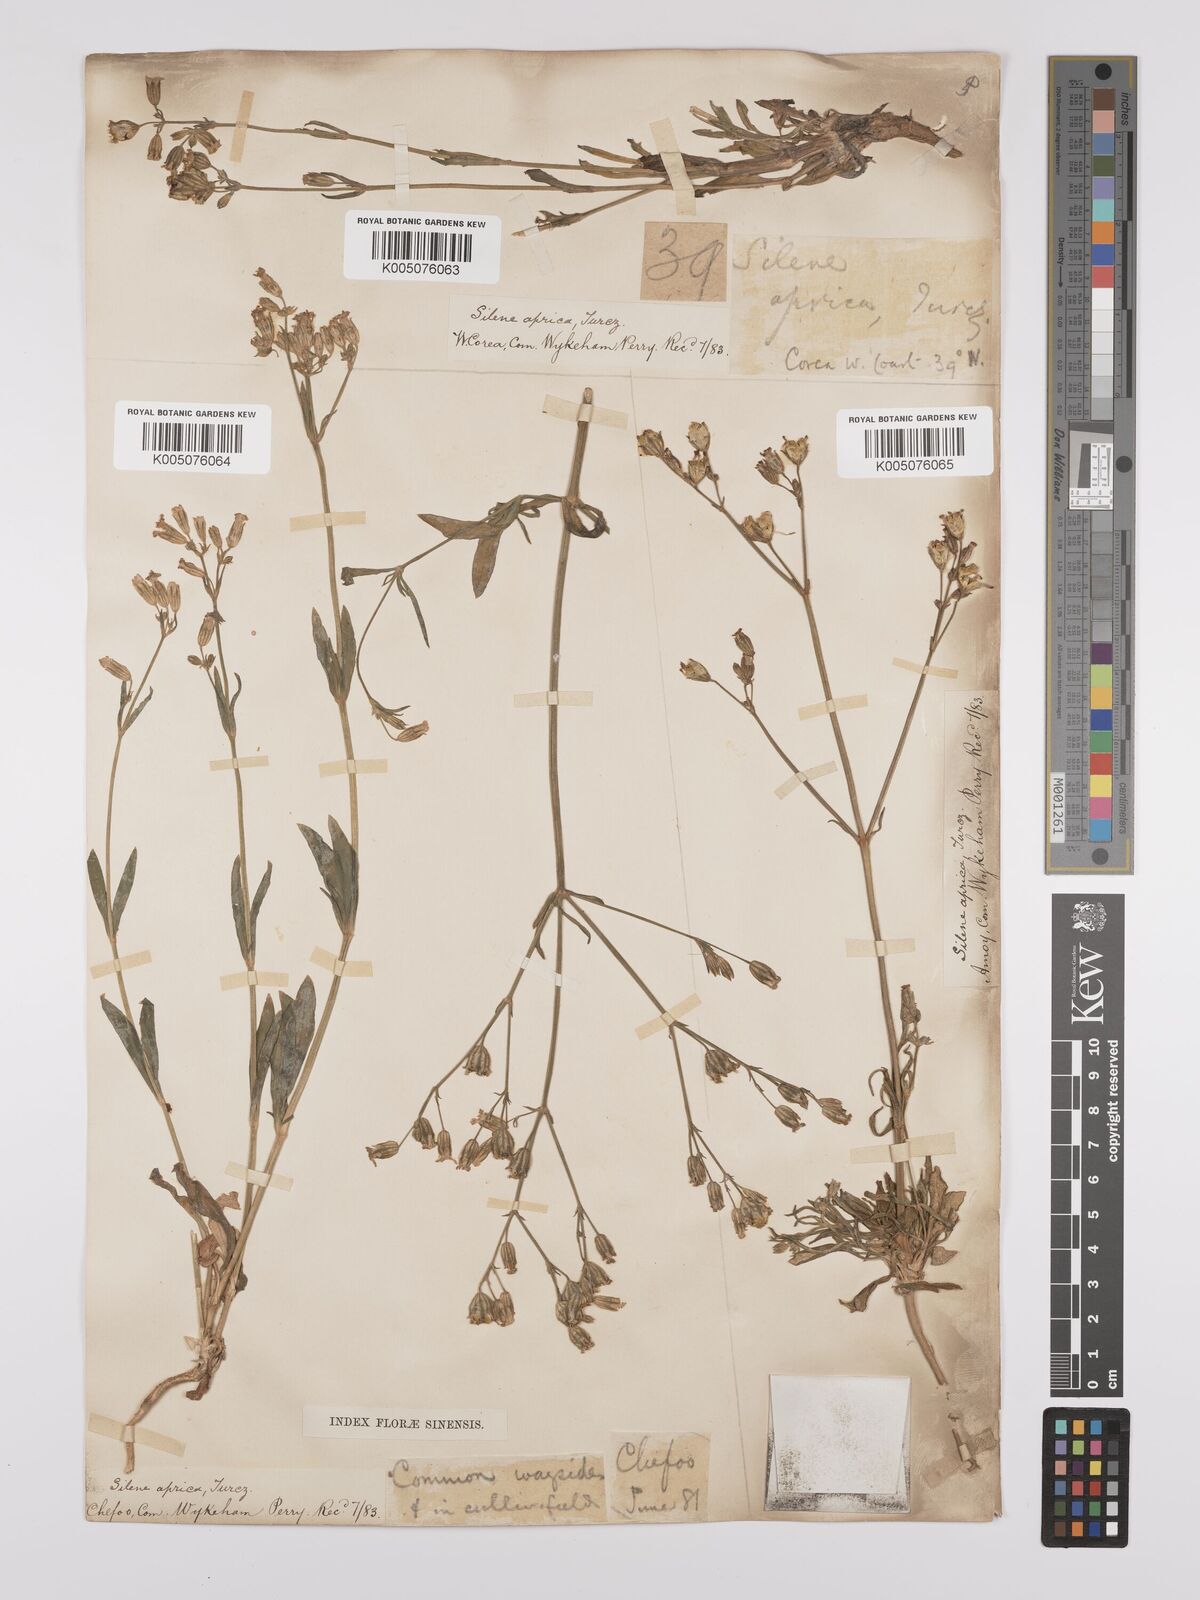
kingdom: Plantae
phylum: Tracheophyta
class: Magnoliopsida
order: Caryophyllales
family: Caryophyllaceae
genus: Silene
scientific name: Silene aprica
